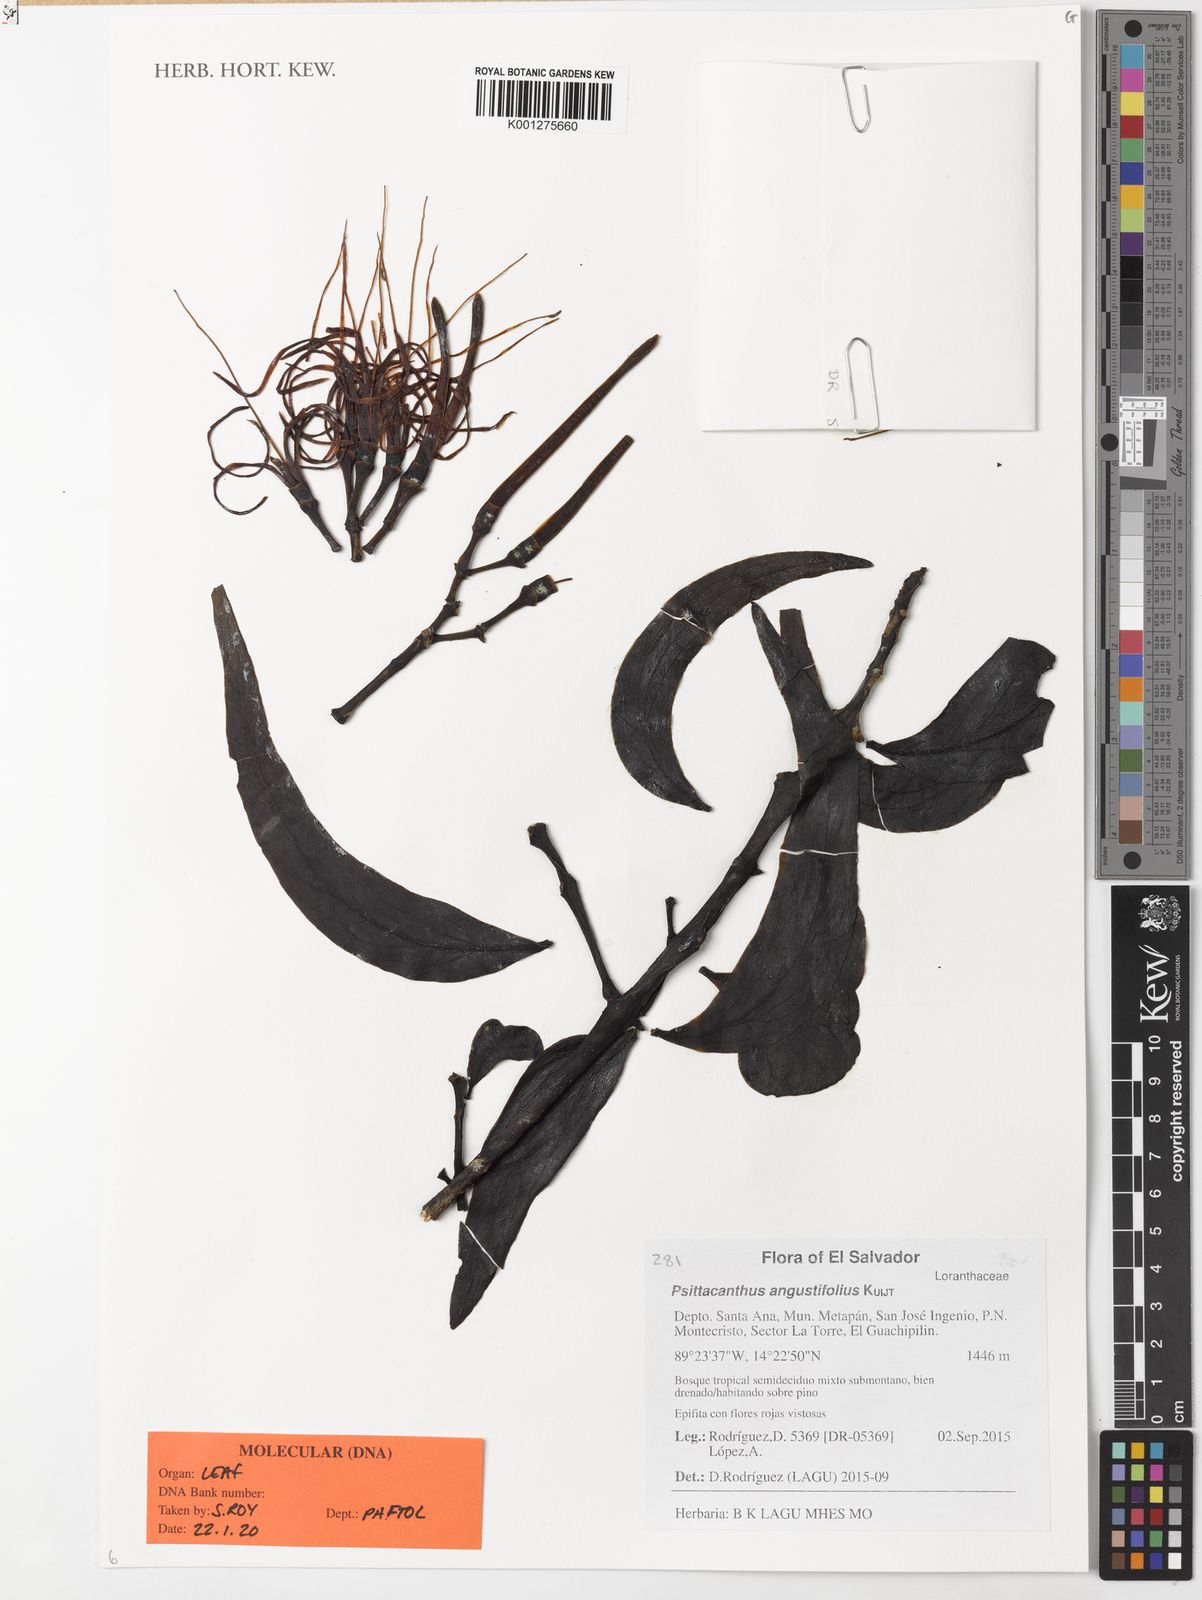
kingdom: Plantae
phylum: Tracheophyta
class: Magnoliopsida
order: Santalales
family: Loranthaceae
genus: Psittacanthus
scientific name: Psittacanthus angustifolius
